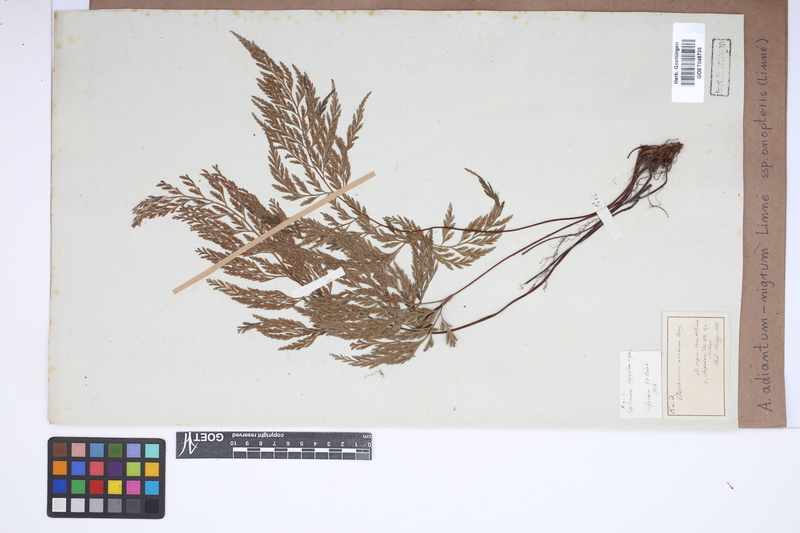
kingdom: Plantae
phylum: Tracheophyta
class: Polypodiopsida
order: Polypodiales
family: Aspleniaceae
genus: Asplenium
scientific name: Asplenium onopteris
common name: Irish spleenwort
